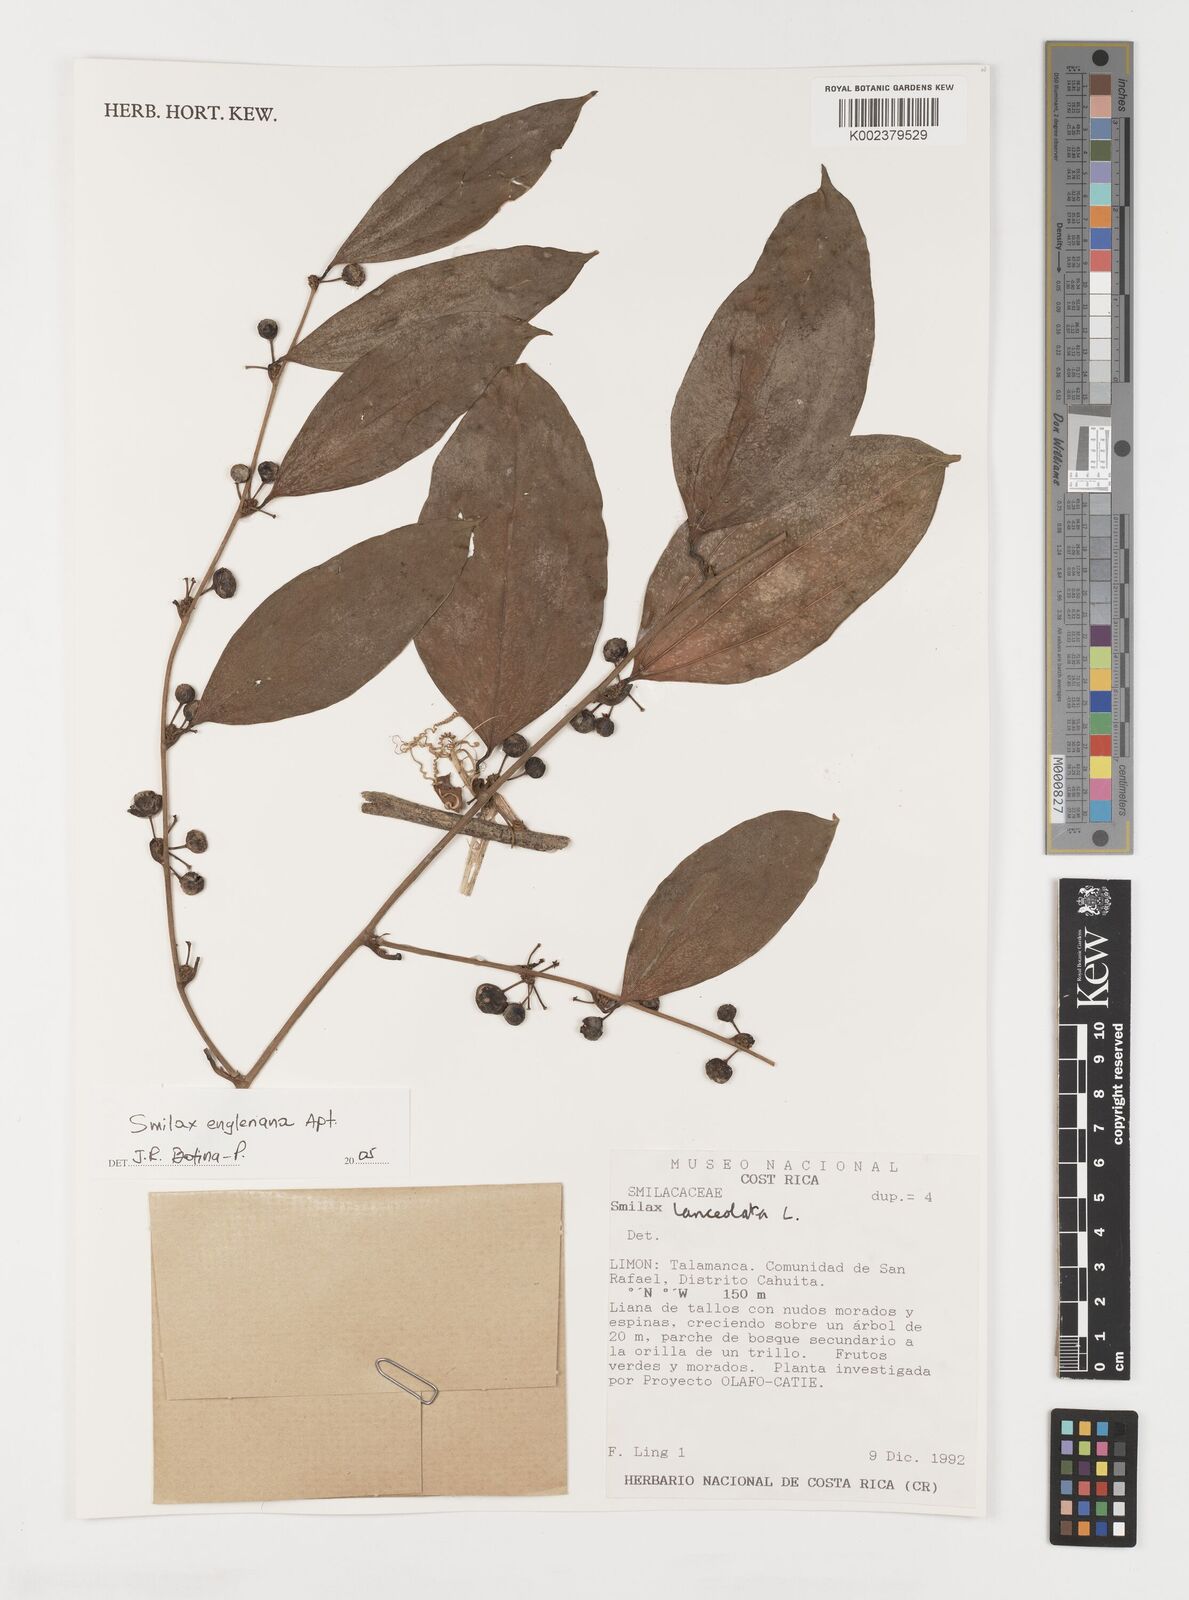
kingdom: Plantae
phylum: Tracheophyta
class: Liliopsida
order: Liliales
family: Smilacaceae
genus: Smilax
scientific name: Smilax domingensis
